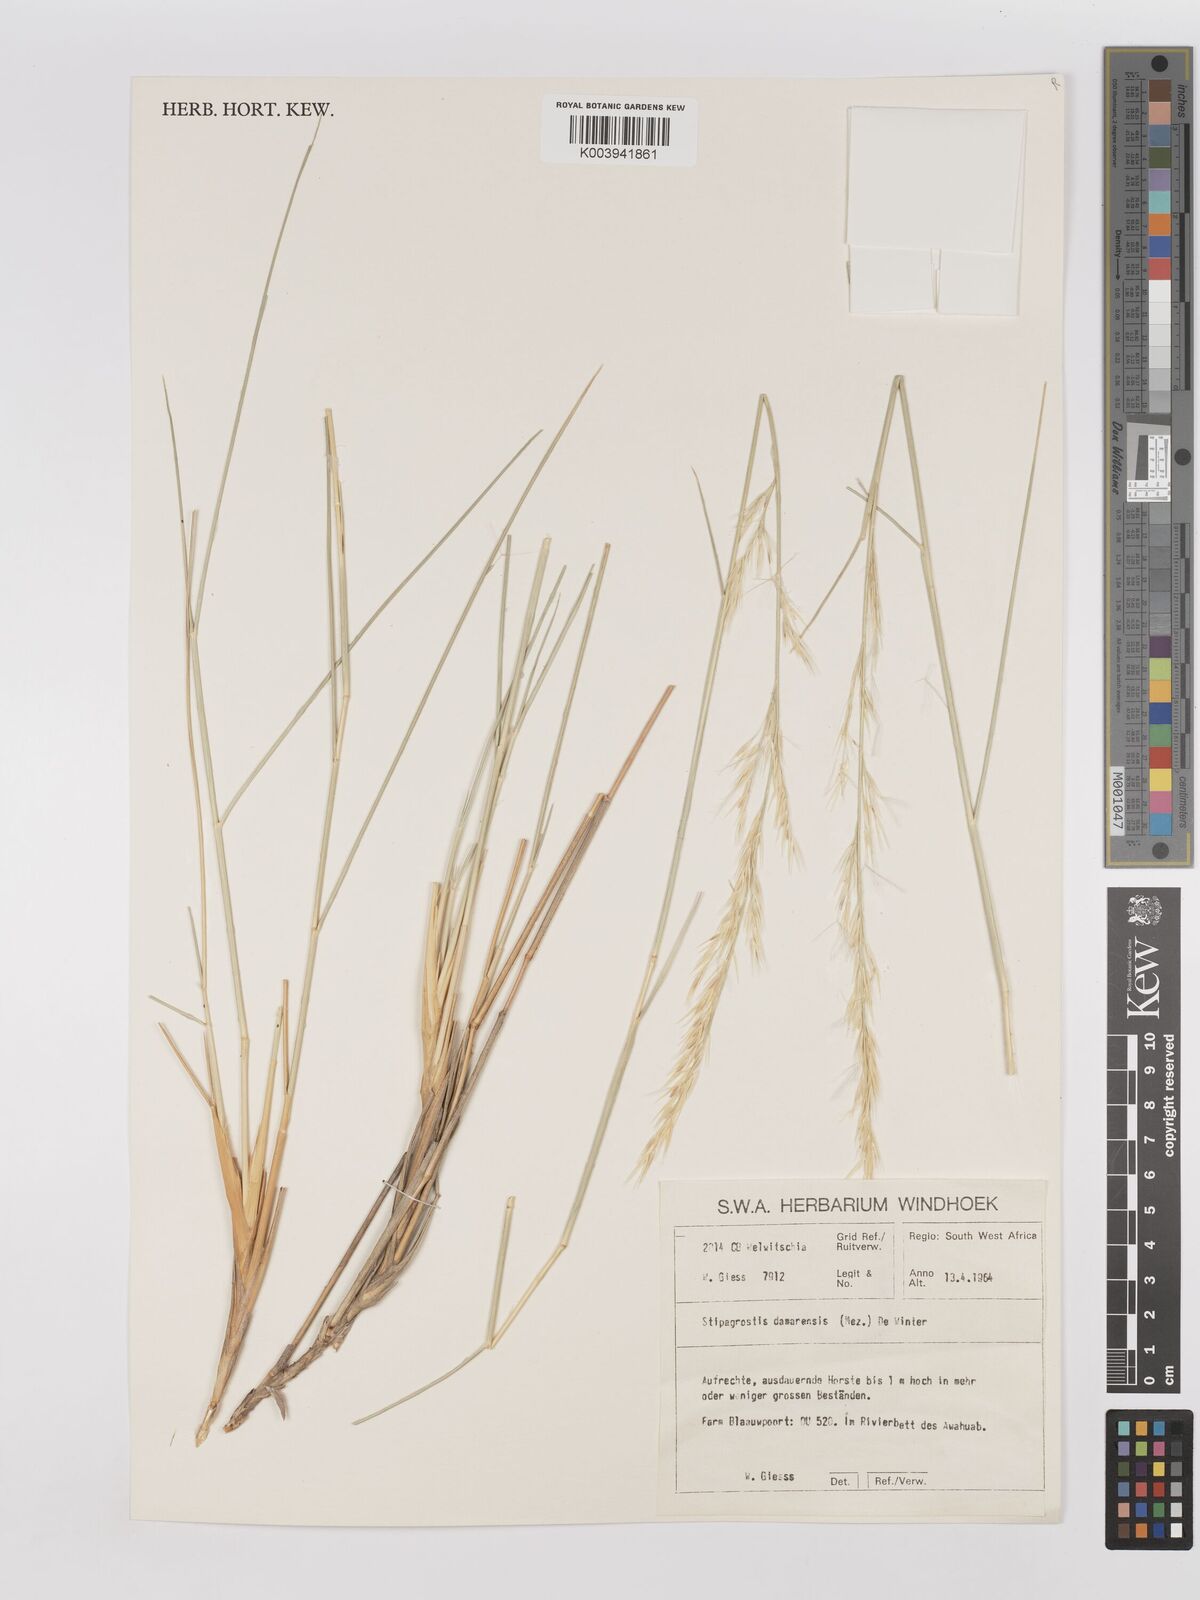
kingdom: Plantae
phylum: Tracheophyta
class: Liliopsida
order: Poales
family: Poaceae
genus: Stipagrostis
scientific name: Stipagrostis damarensis
